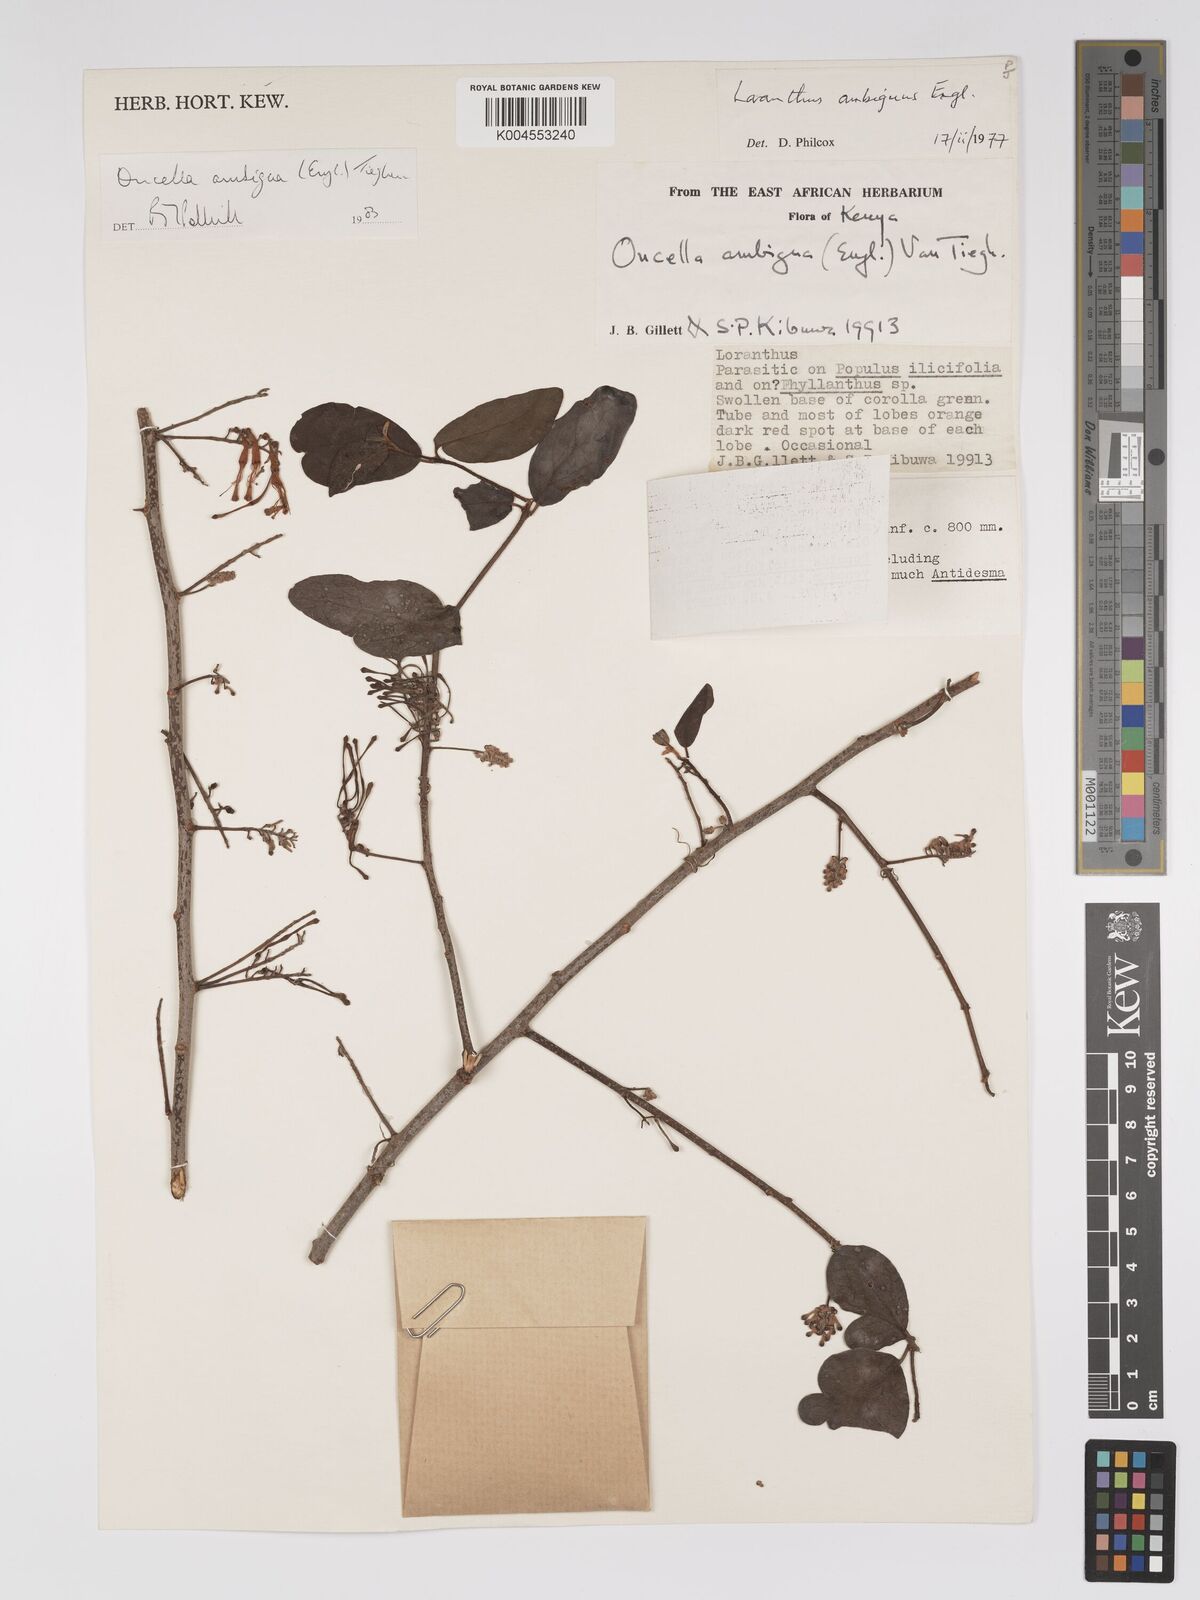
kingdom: Plantae
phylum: Tracheophyta
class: Magnoliopsida
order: Santalales
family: Loranthaceae
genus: Oncella
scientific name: Oncella ambigua
